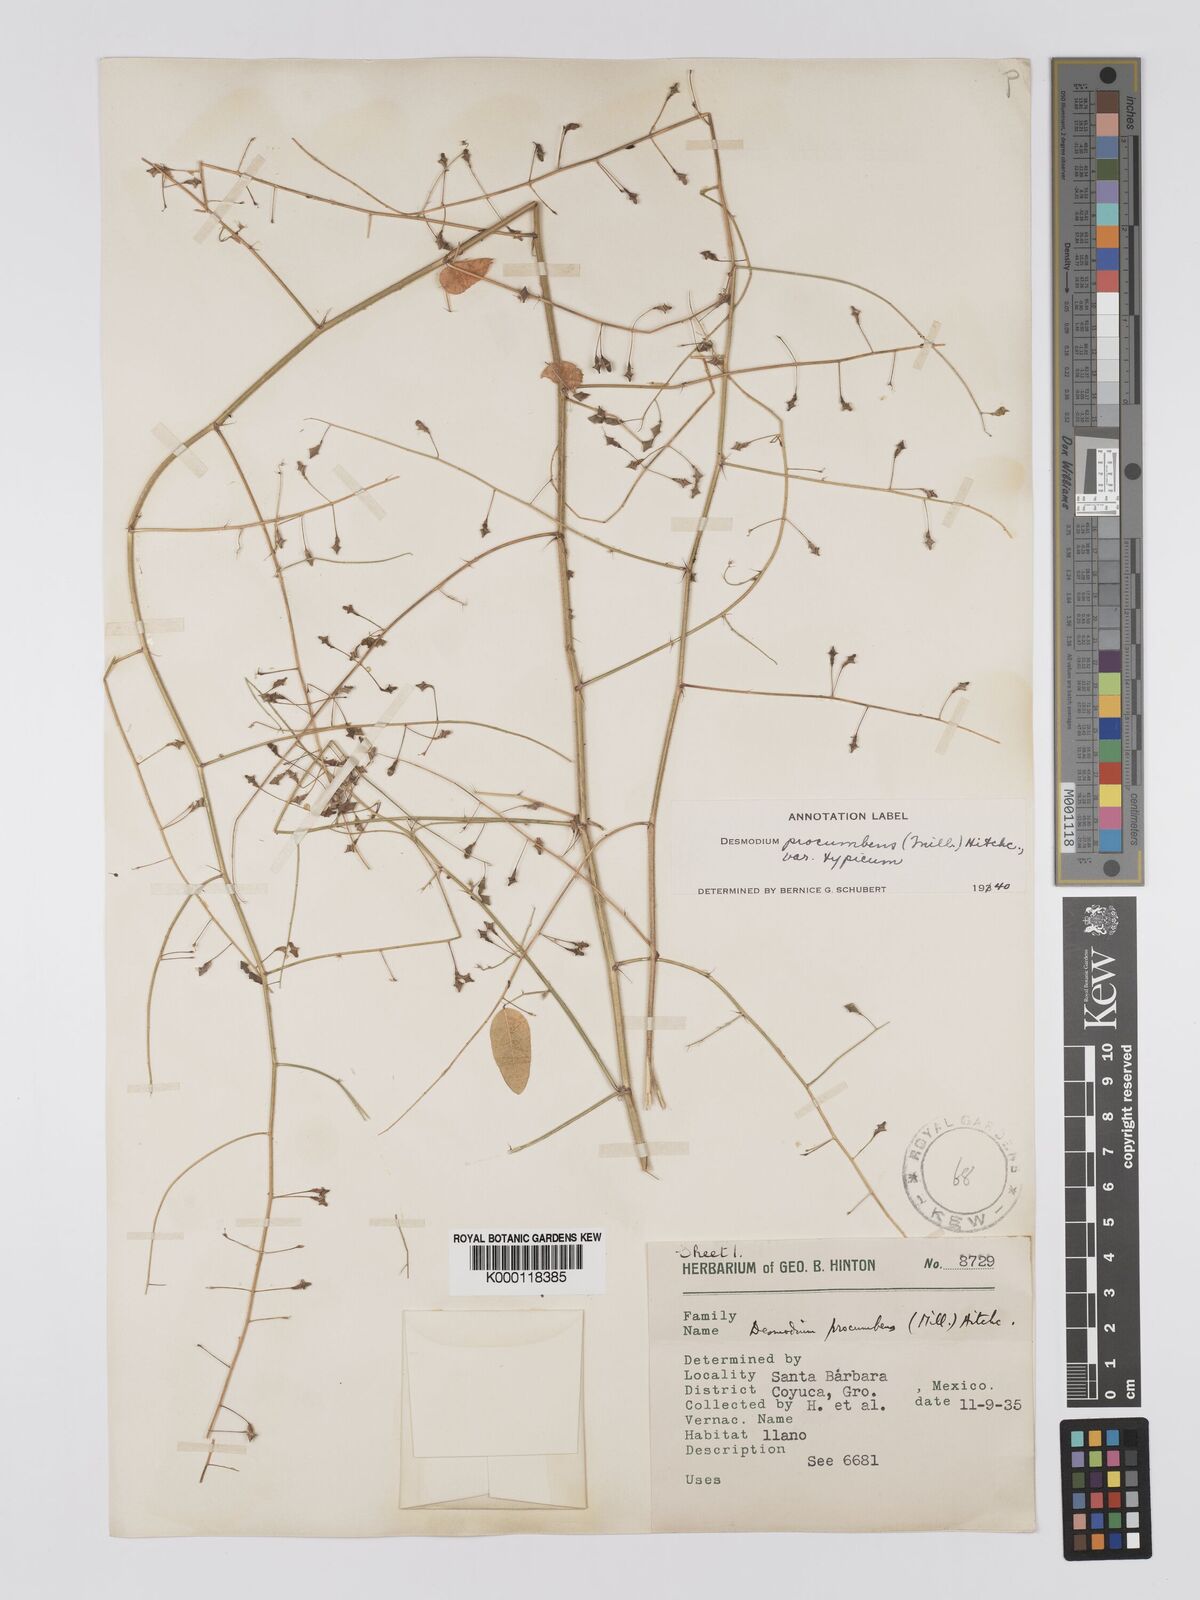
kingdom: Plantae
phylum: Tracheophyta
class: Magnoliopsida
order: Fabales
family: Fabaceae
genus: Desmodium
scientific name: Desmodium procumbens
